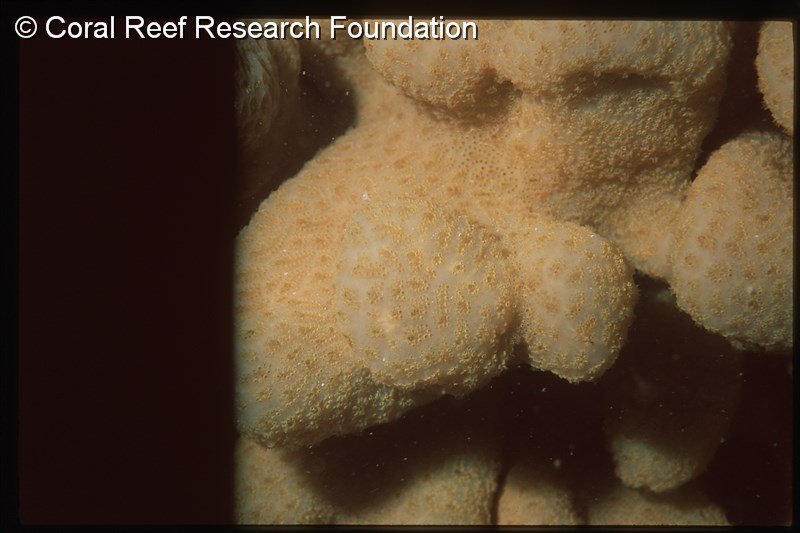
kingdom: Animalia
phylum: Chordata
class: Ascidiacea
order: Aplousobranchia
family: Polyclinidae
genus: Aplidium
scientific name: Aplidium
